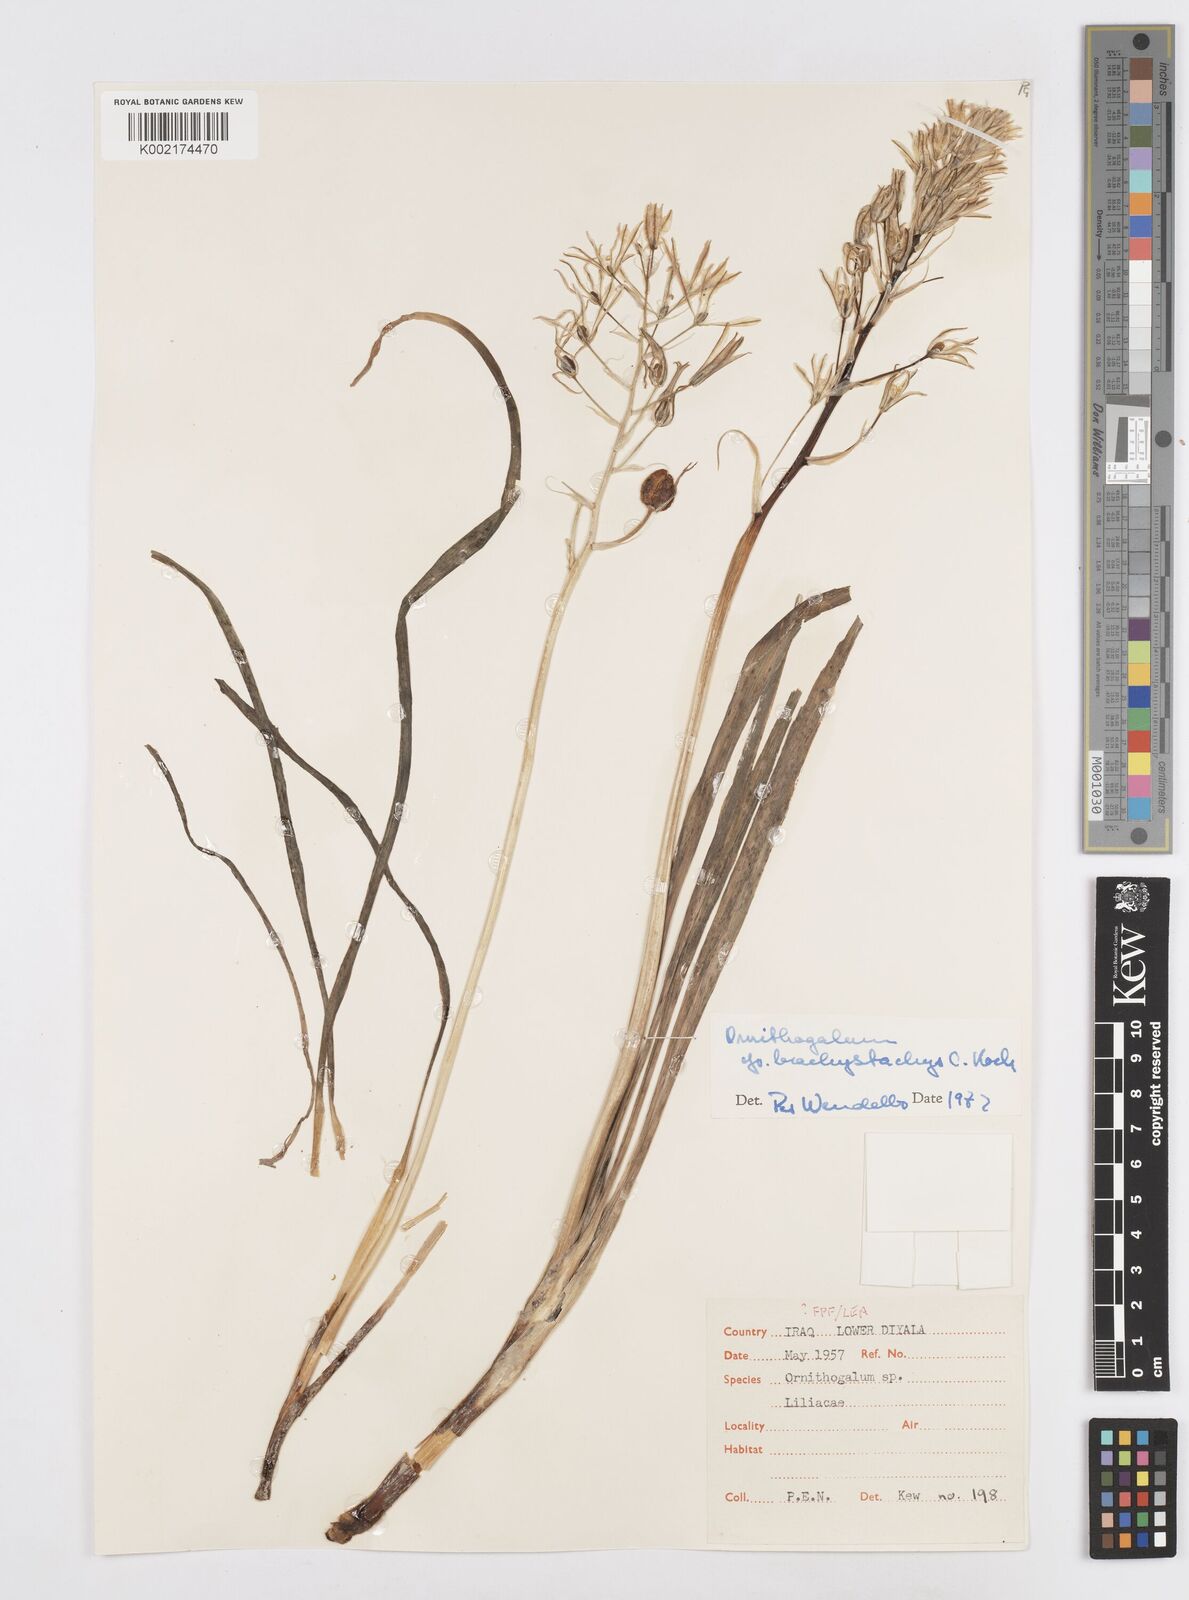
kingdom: Plantae
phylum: Tracheophyta
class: Liliopsida
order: Asparagales
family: Asparagaceae
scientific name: Asparagaceae
